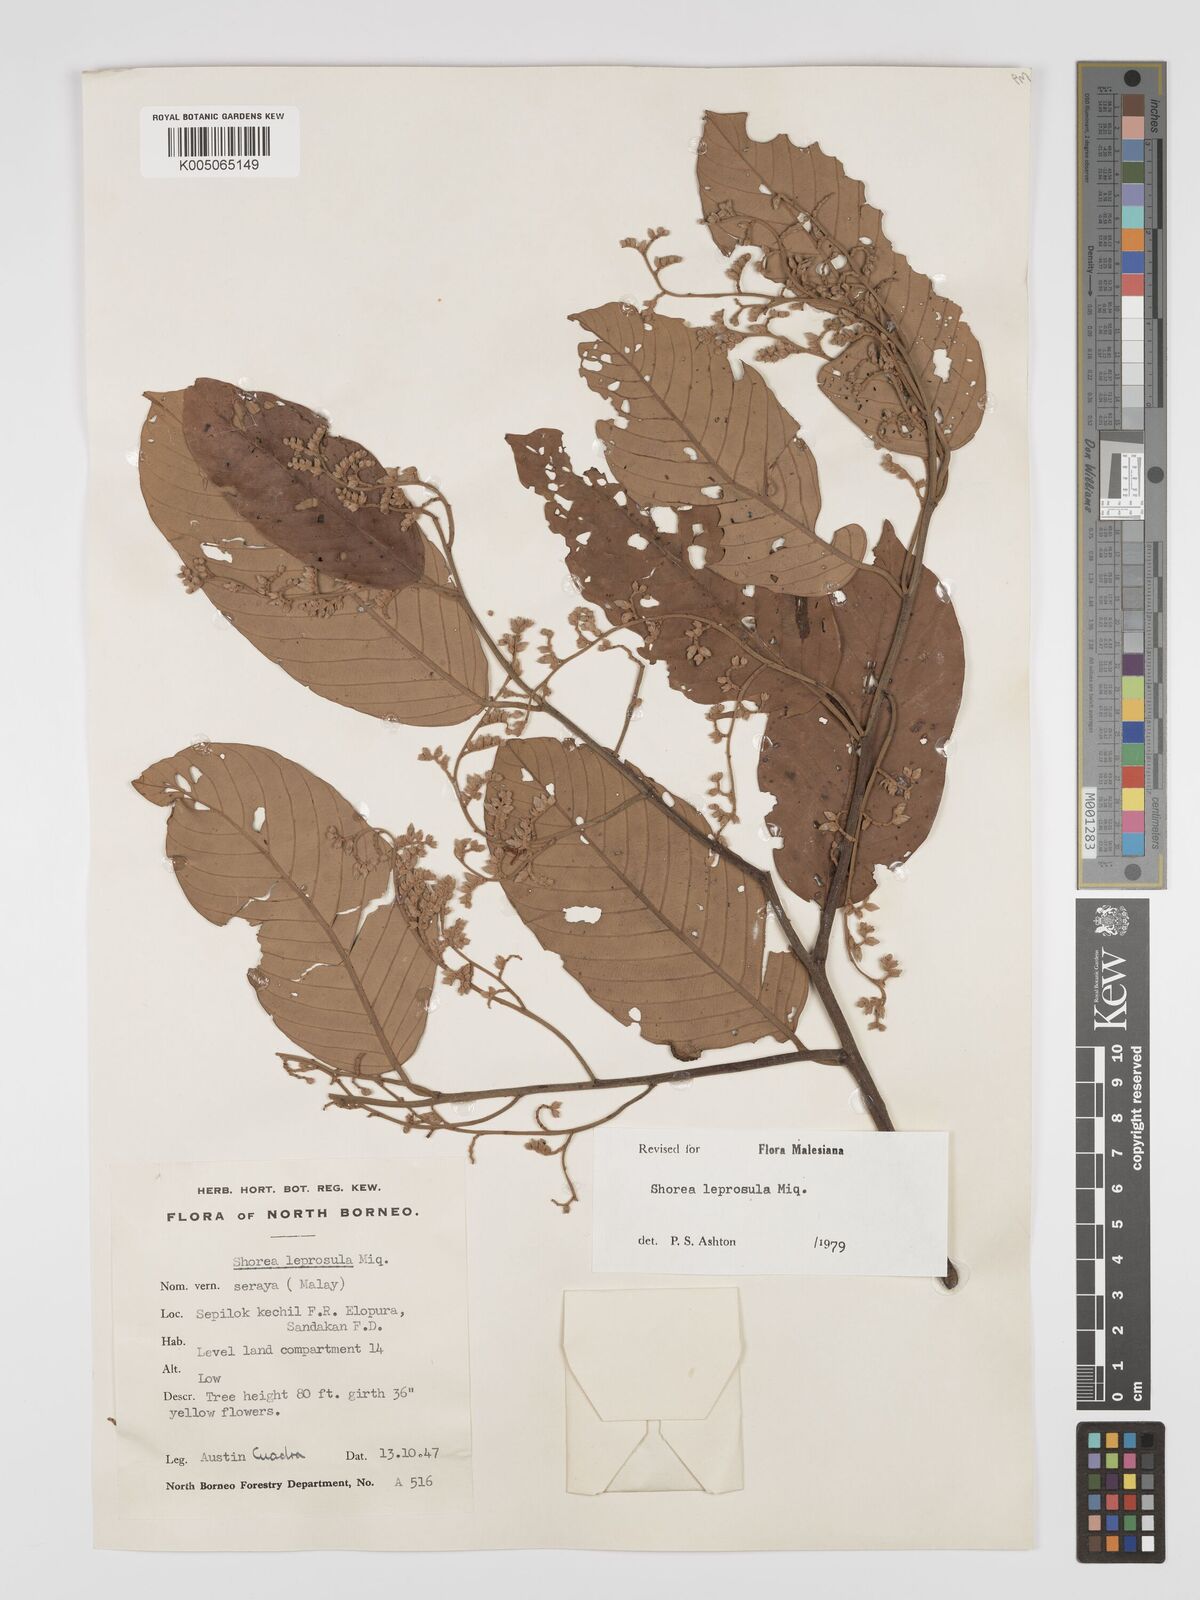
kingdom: Plantae
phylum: Tracheophyta
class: Magnoliopsida
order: Malvales
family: Dipterocarpaceae
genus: Shorea
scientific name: Shorea leprosula
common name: Light red meranti
